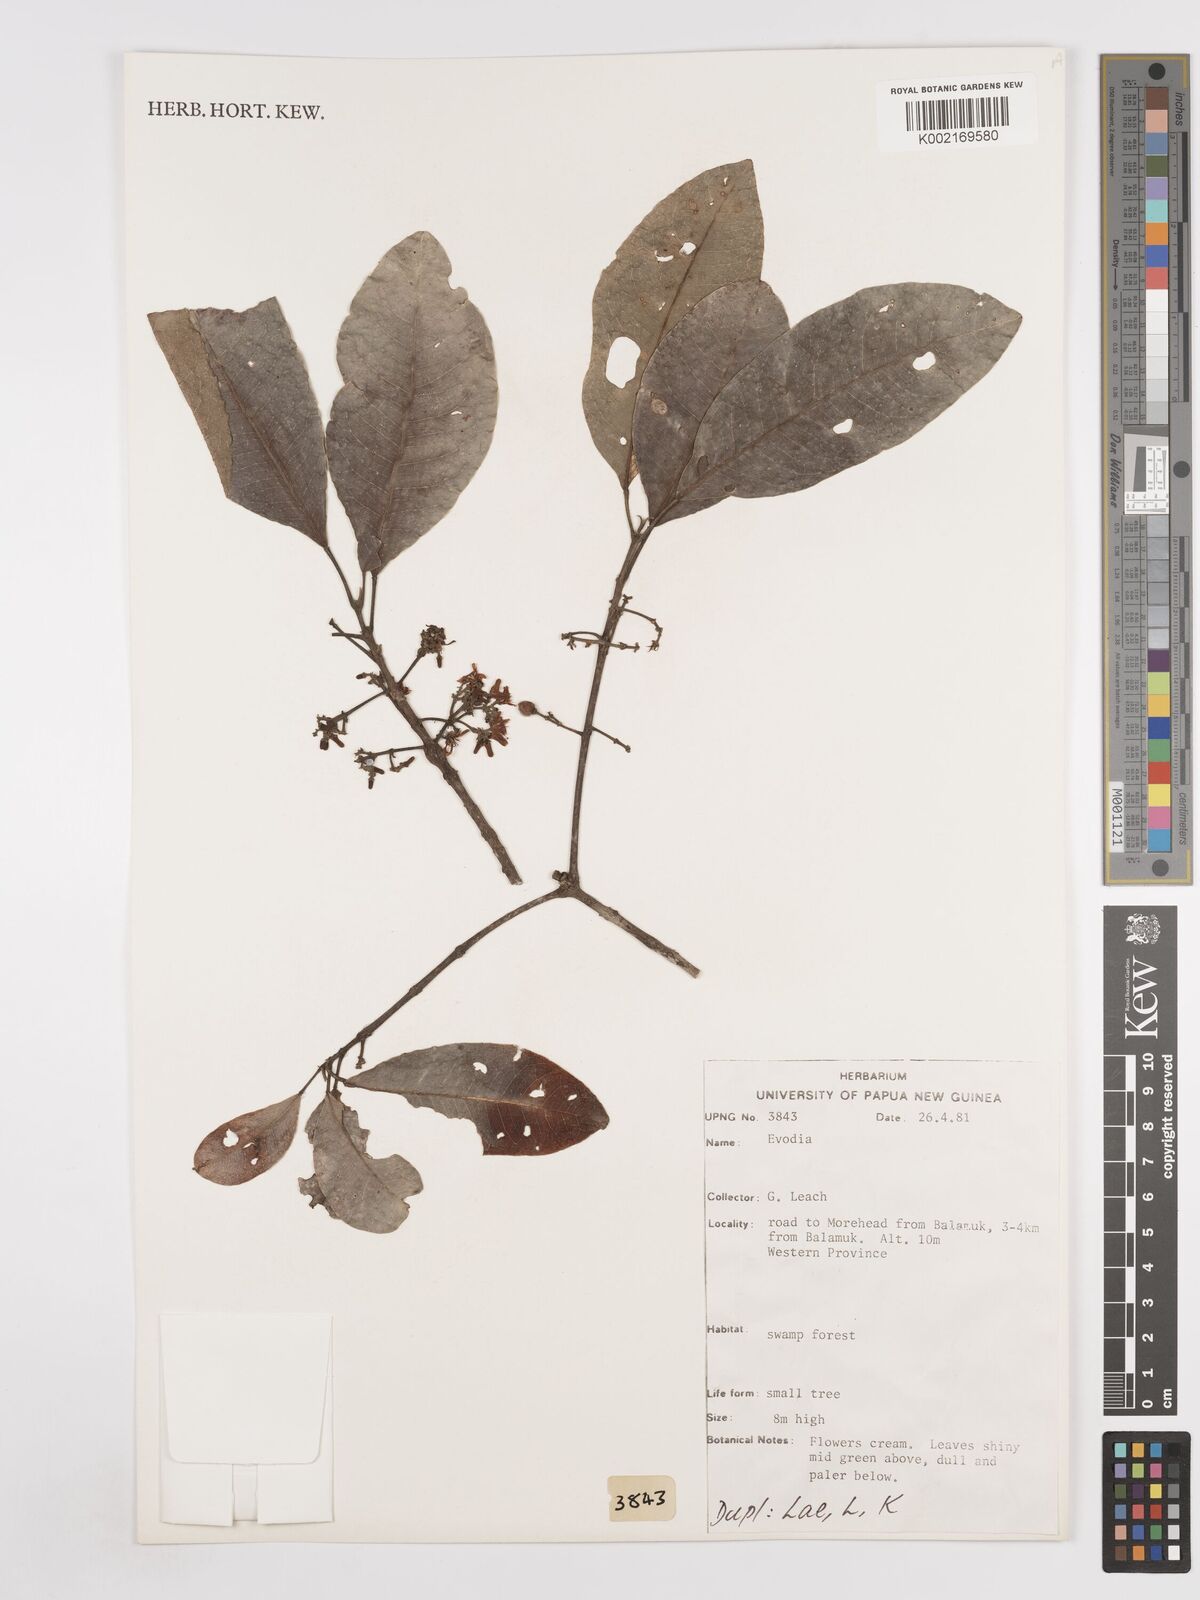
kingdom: Plantae
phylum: Tracheophyta
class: Magnoliopsida
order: Sapindales
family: Rutaceae
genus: Euodia
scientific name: Euodia
